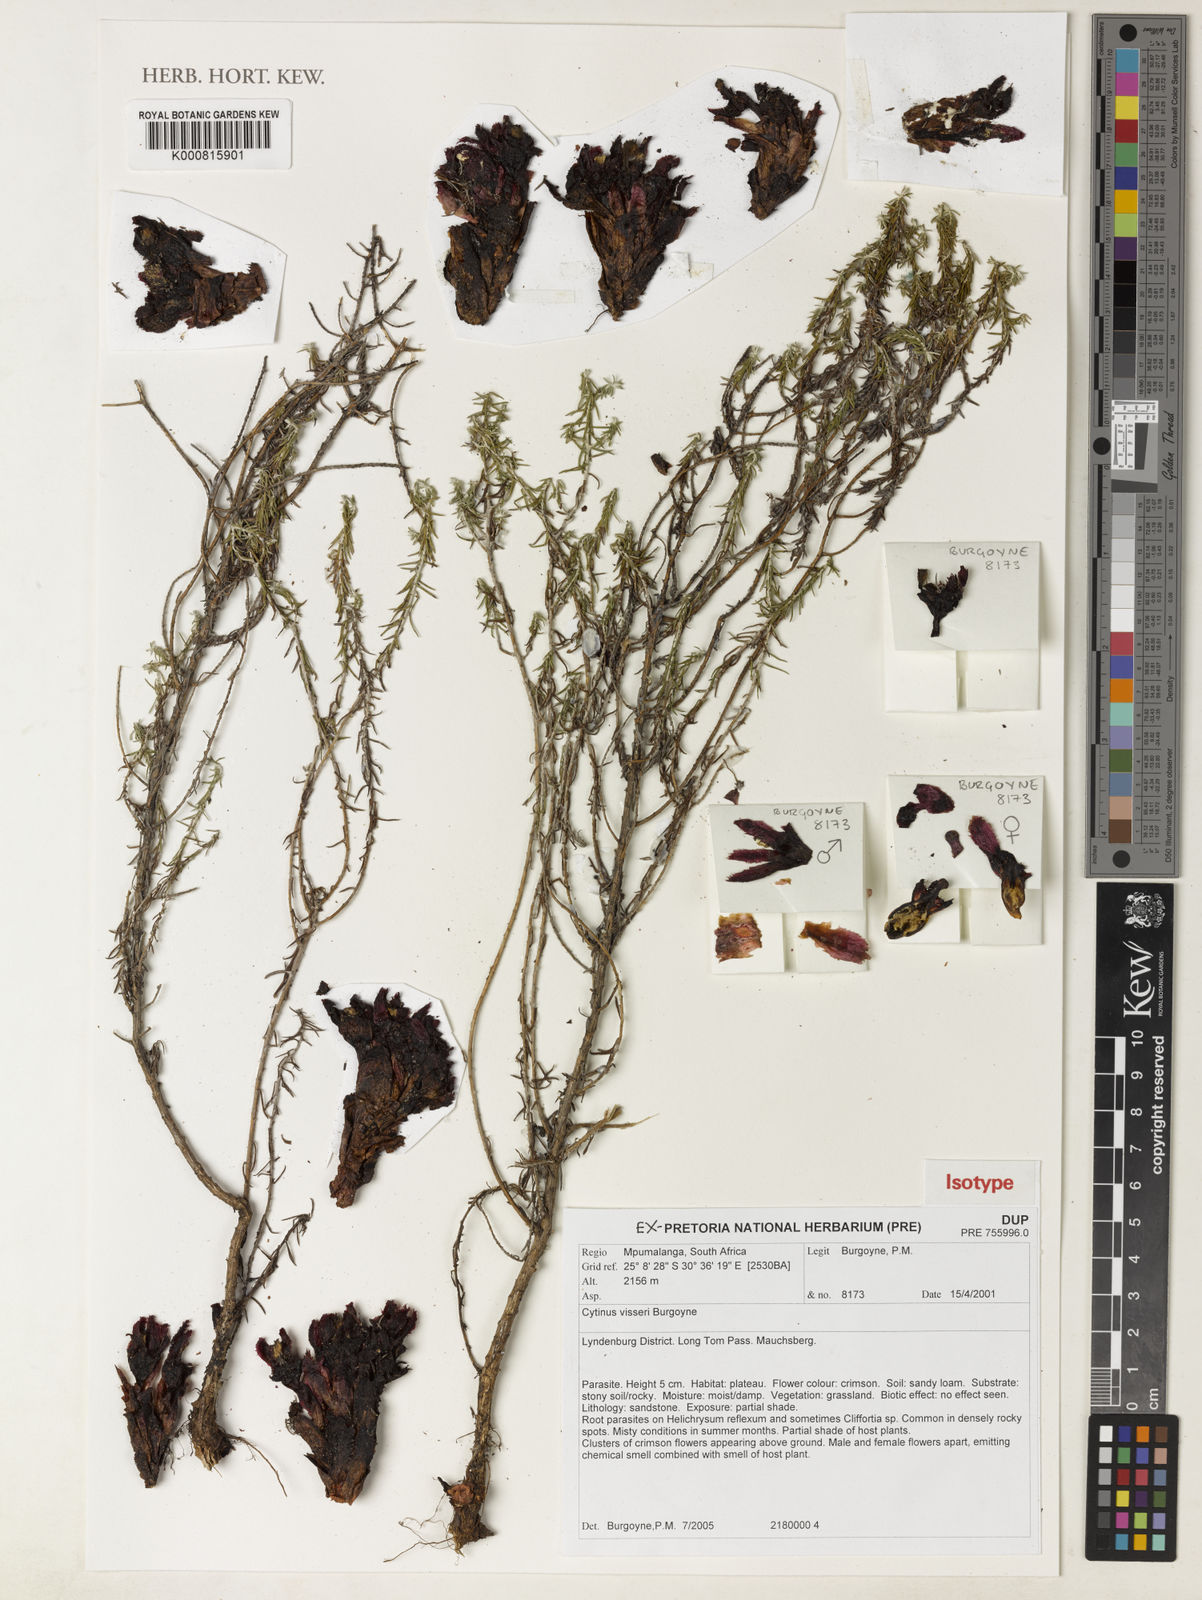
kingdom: Plantae
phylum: Tracheophyta
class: Magnoliopsida
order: Malvales
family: Cytinaceae
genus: Cytinus
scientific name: Cytinus visseri
